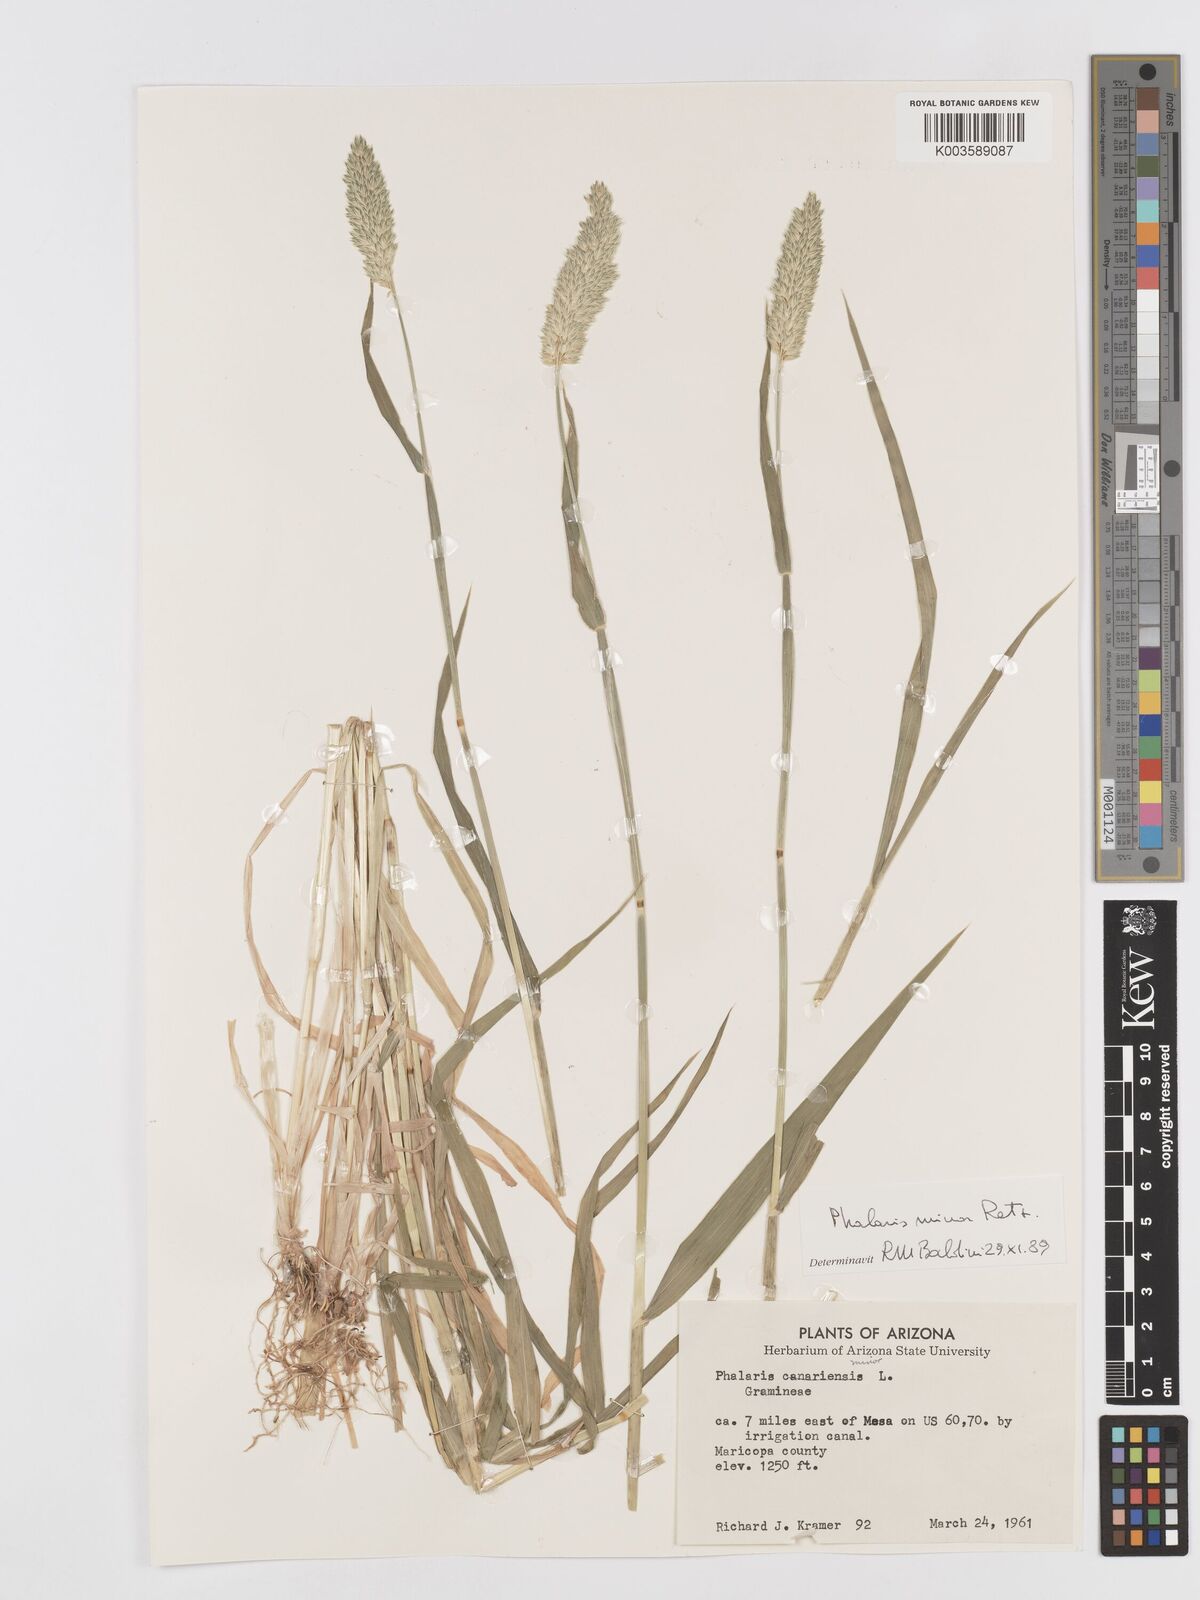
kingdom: Plantae
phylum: Tracheophyta
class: Liliopsida
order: Poales
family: Poaceae
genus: Phalaris
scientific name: Phalaris minor
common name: Littleseed canarygrass
